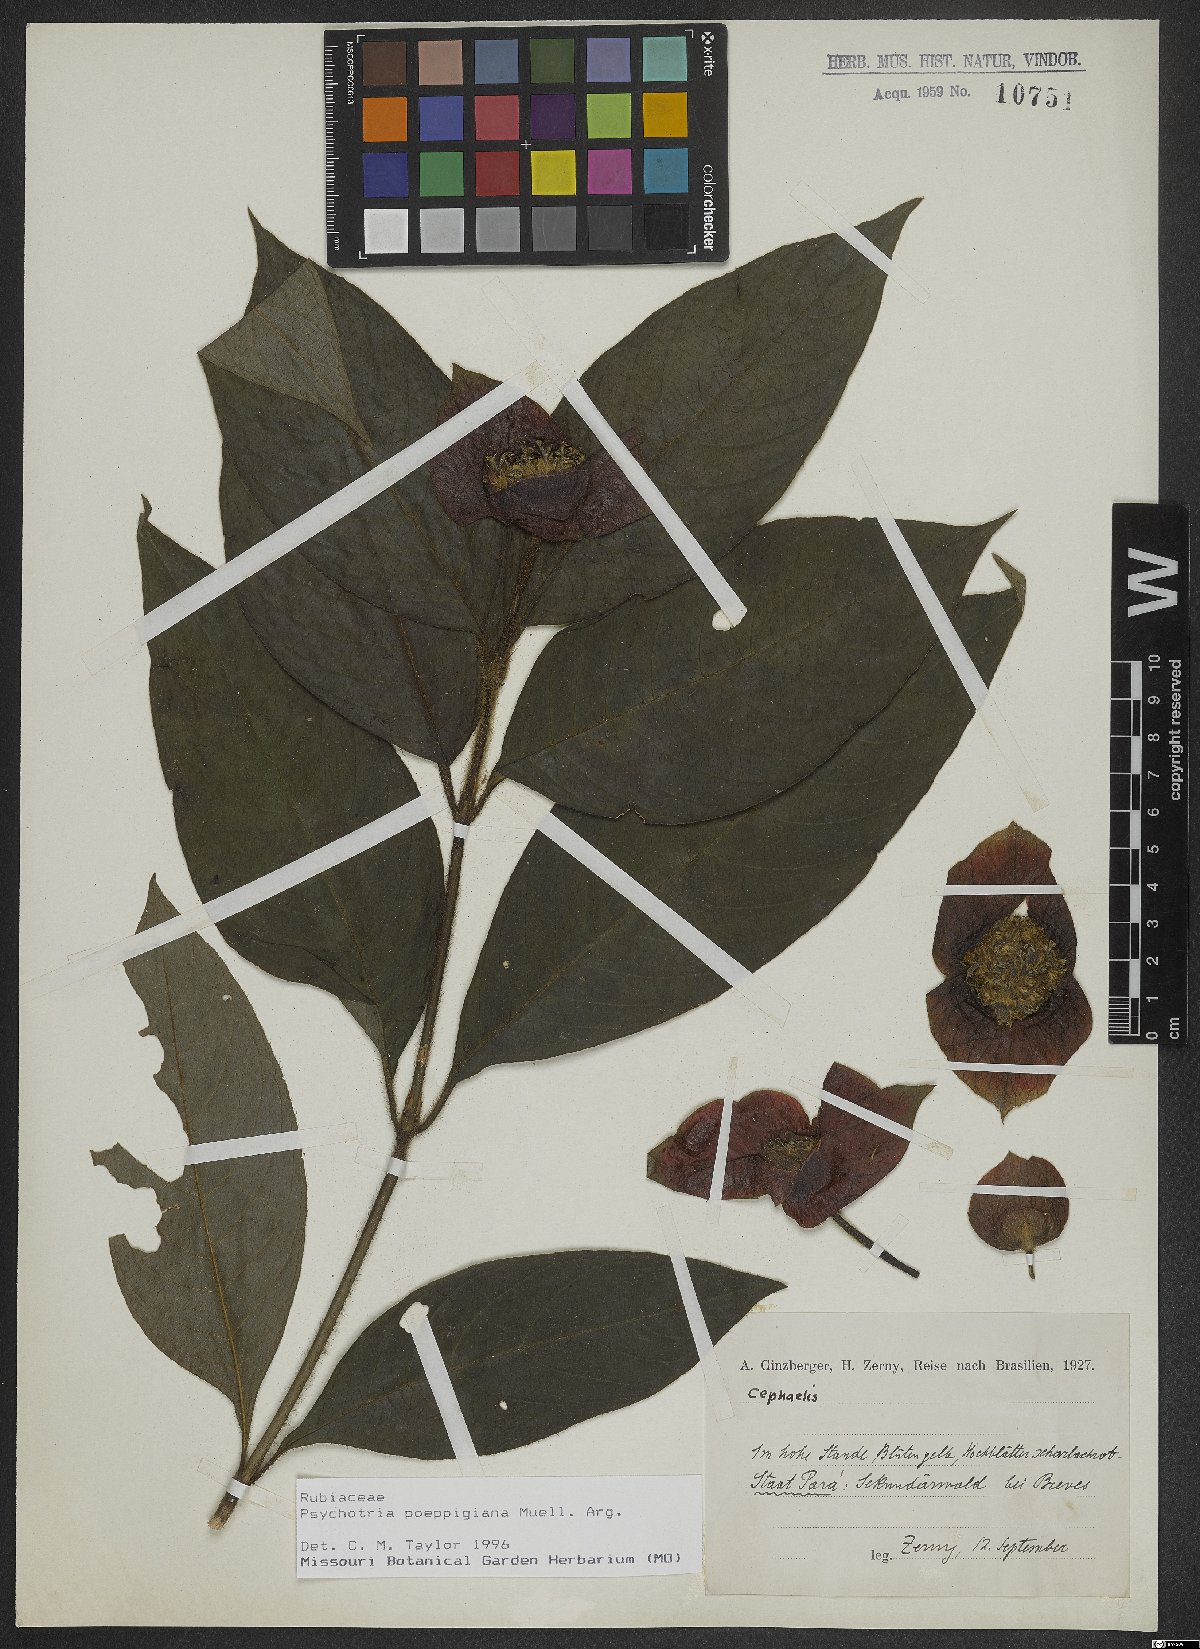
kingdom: Plantae
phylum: Tracheophyta
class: Magnoliopsida
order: Gentianales
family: Rubiaceae
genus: Palicourea
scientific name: Palicourea tomentosa
